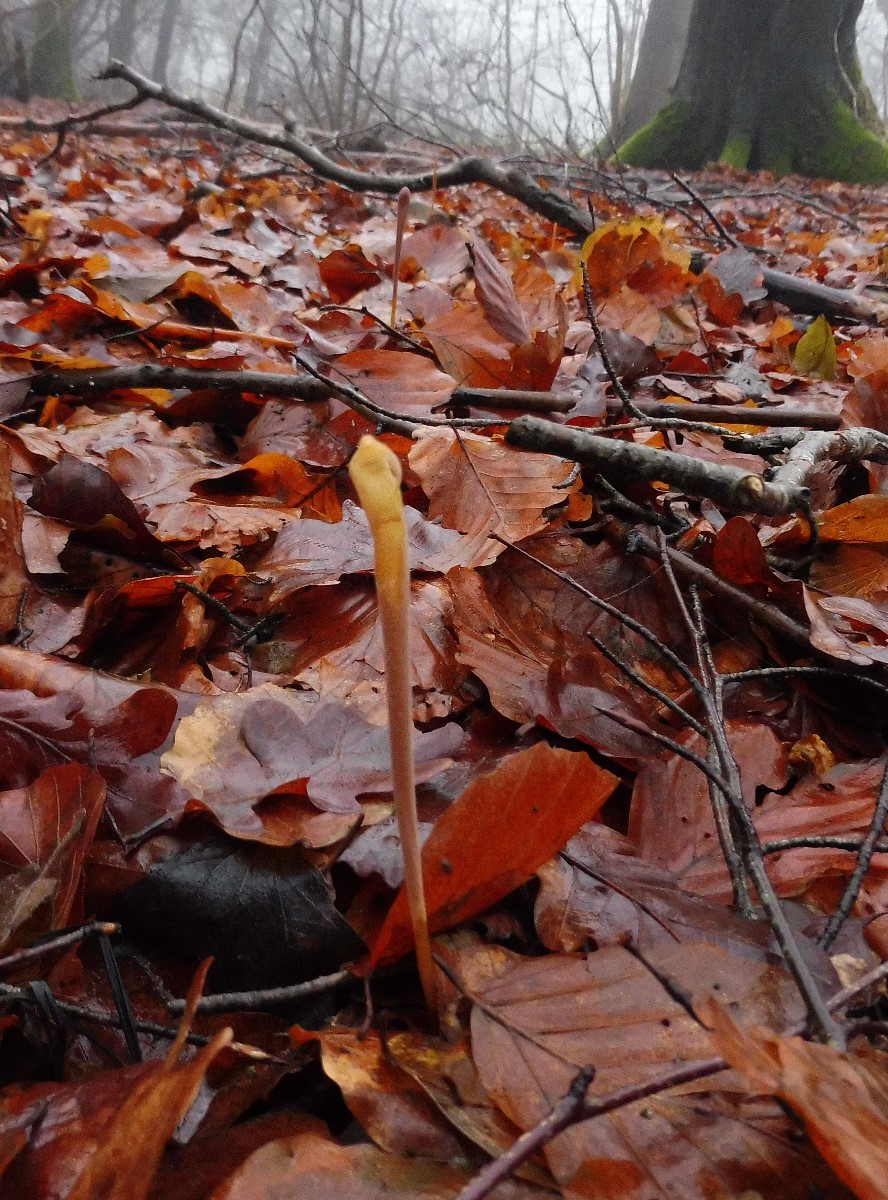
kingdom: Fungi
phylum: Basidiomycota
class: Agaricomycetes
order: Agaricales
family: Typhulaceae
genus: Typhula
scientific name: Typhula fistulosa
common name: pibet rørkølle
